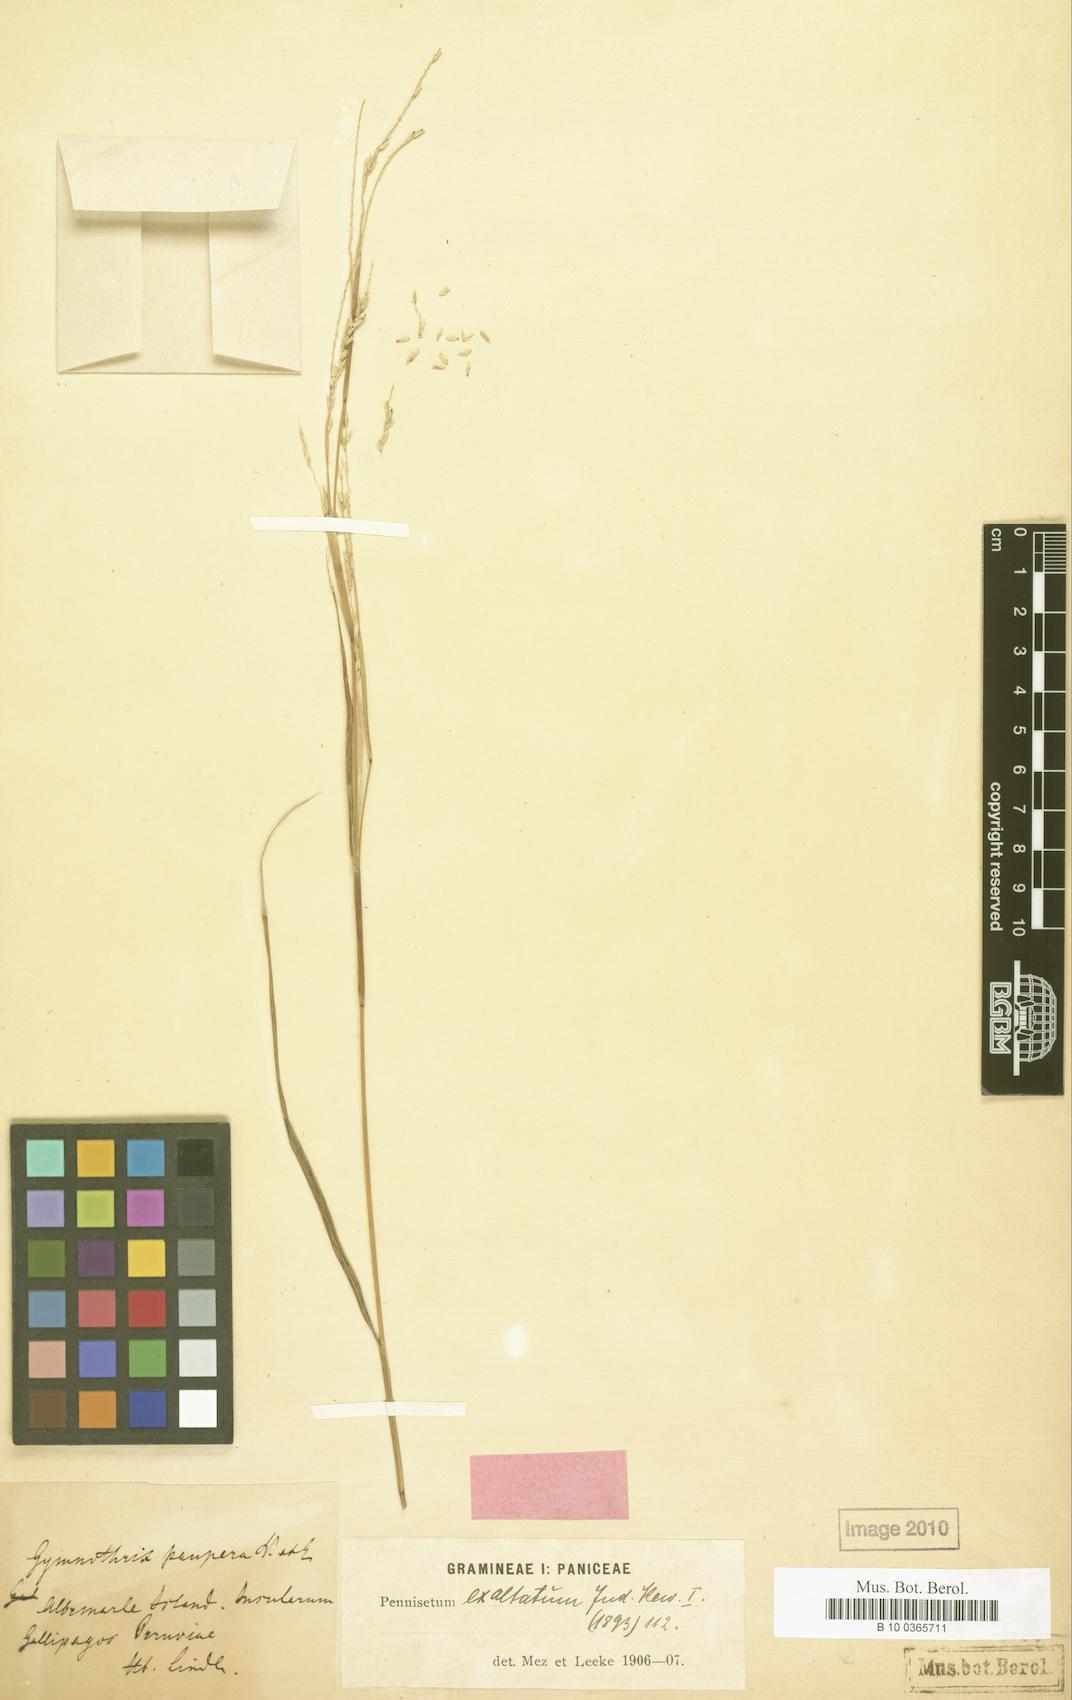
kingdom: Plantae
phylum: Tracheophyta
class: Liliopsida
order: Poales
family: Poaceae
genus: Cenchrus
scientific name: Cenchrus pauper
